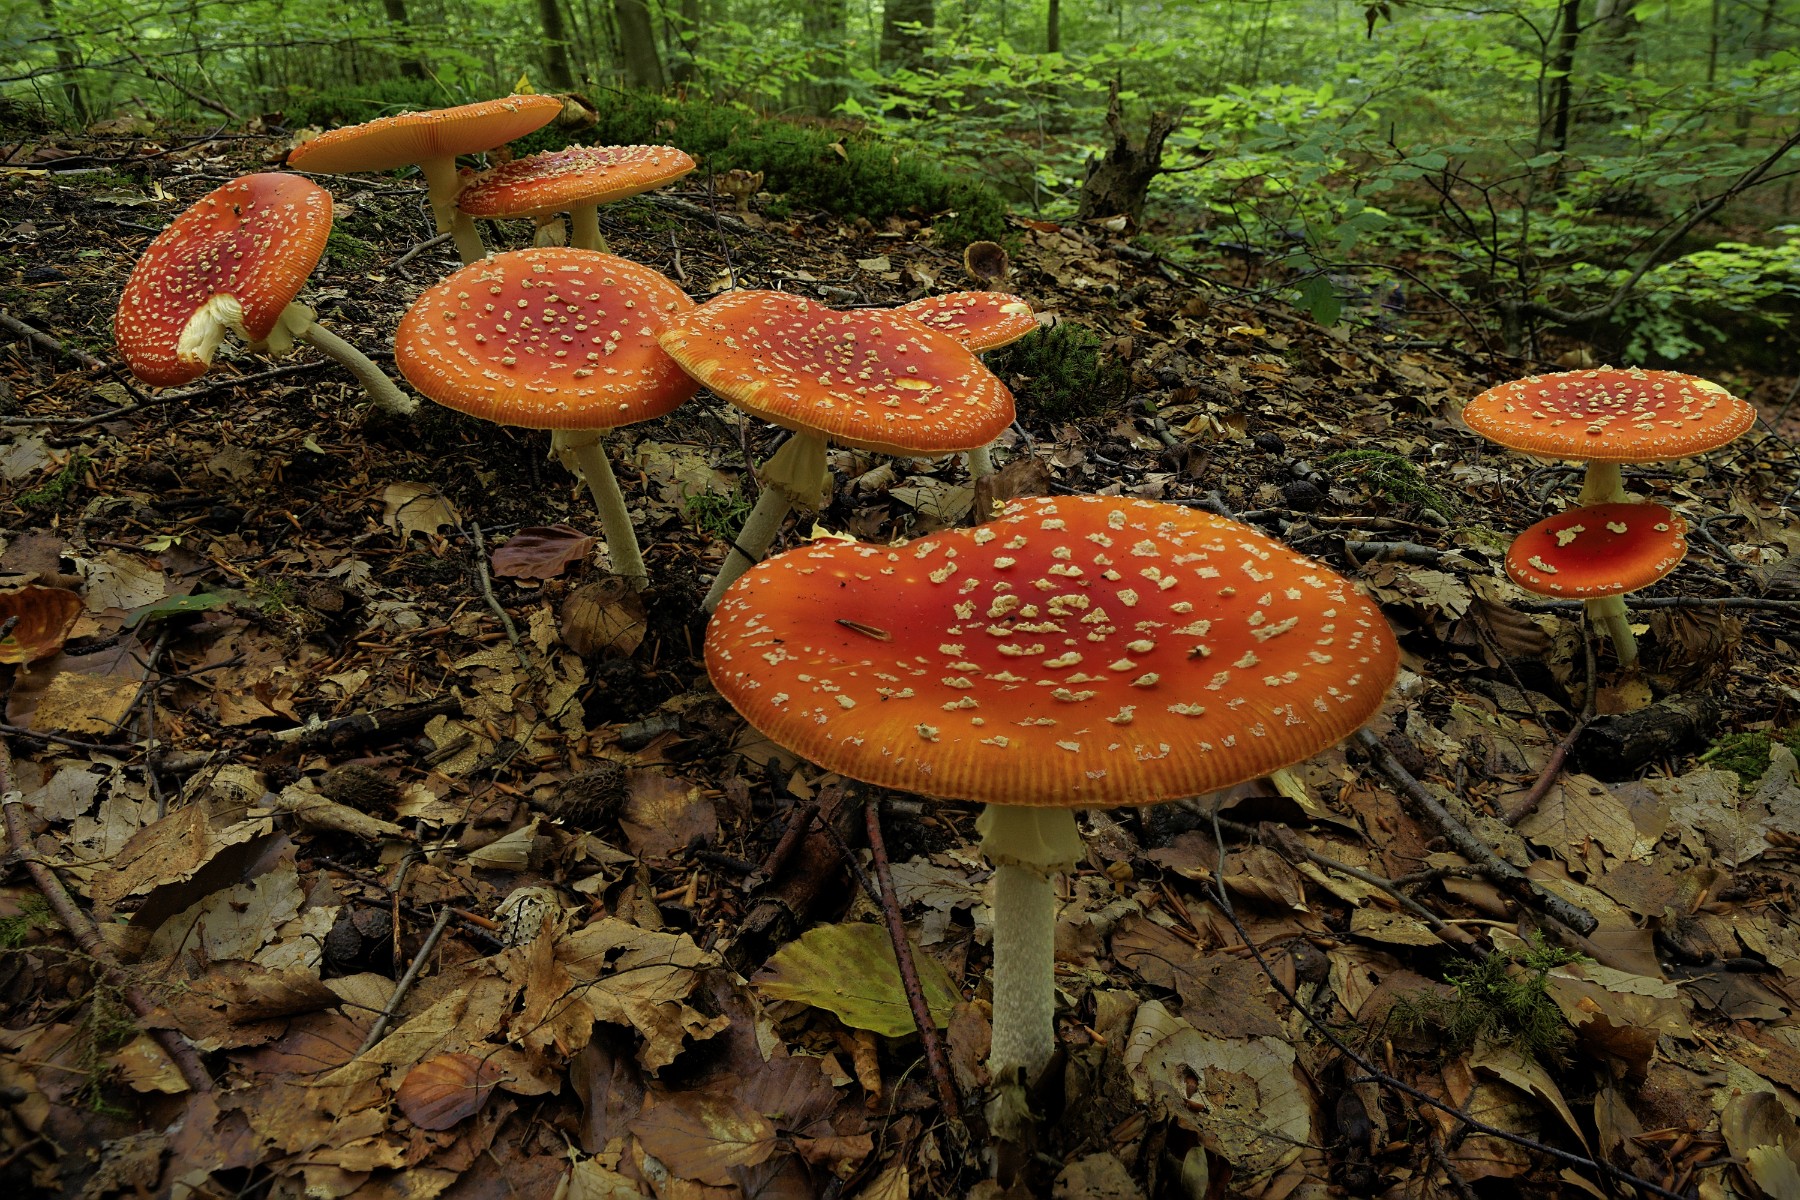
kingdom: Fungi
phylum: Basidiomycota
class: Agaricomycetes
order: Agaricales
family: Amanitaceae
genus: Amanita
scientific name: Amanita muscaria
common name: rød fluesvamp
